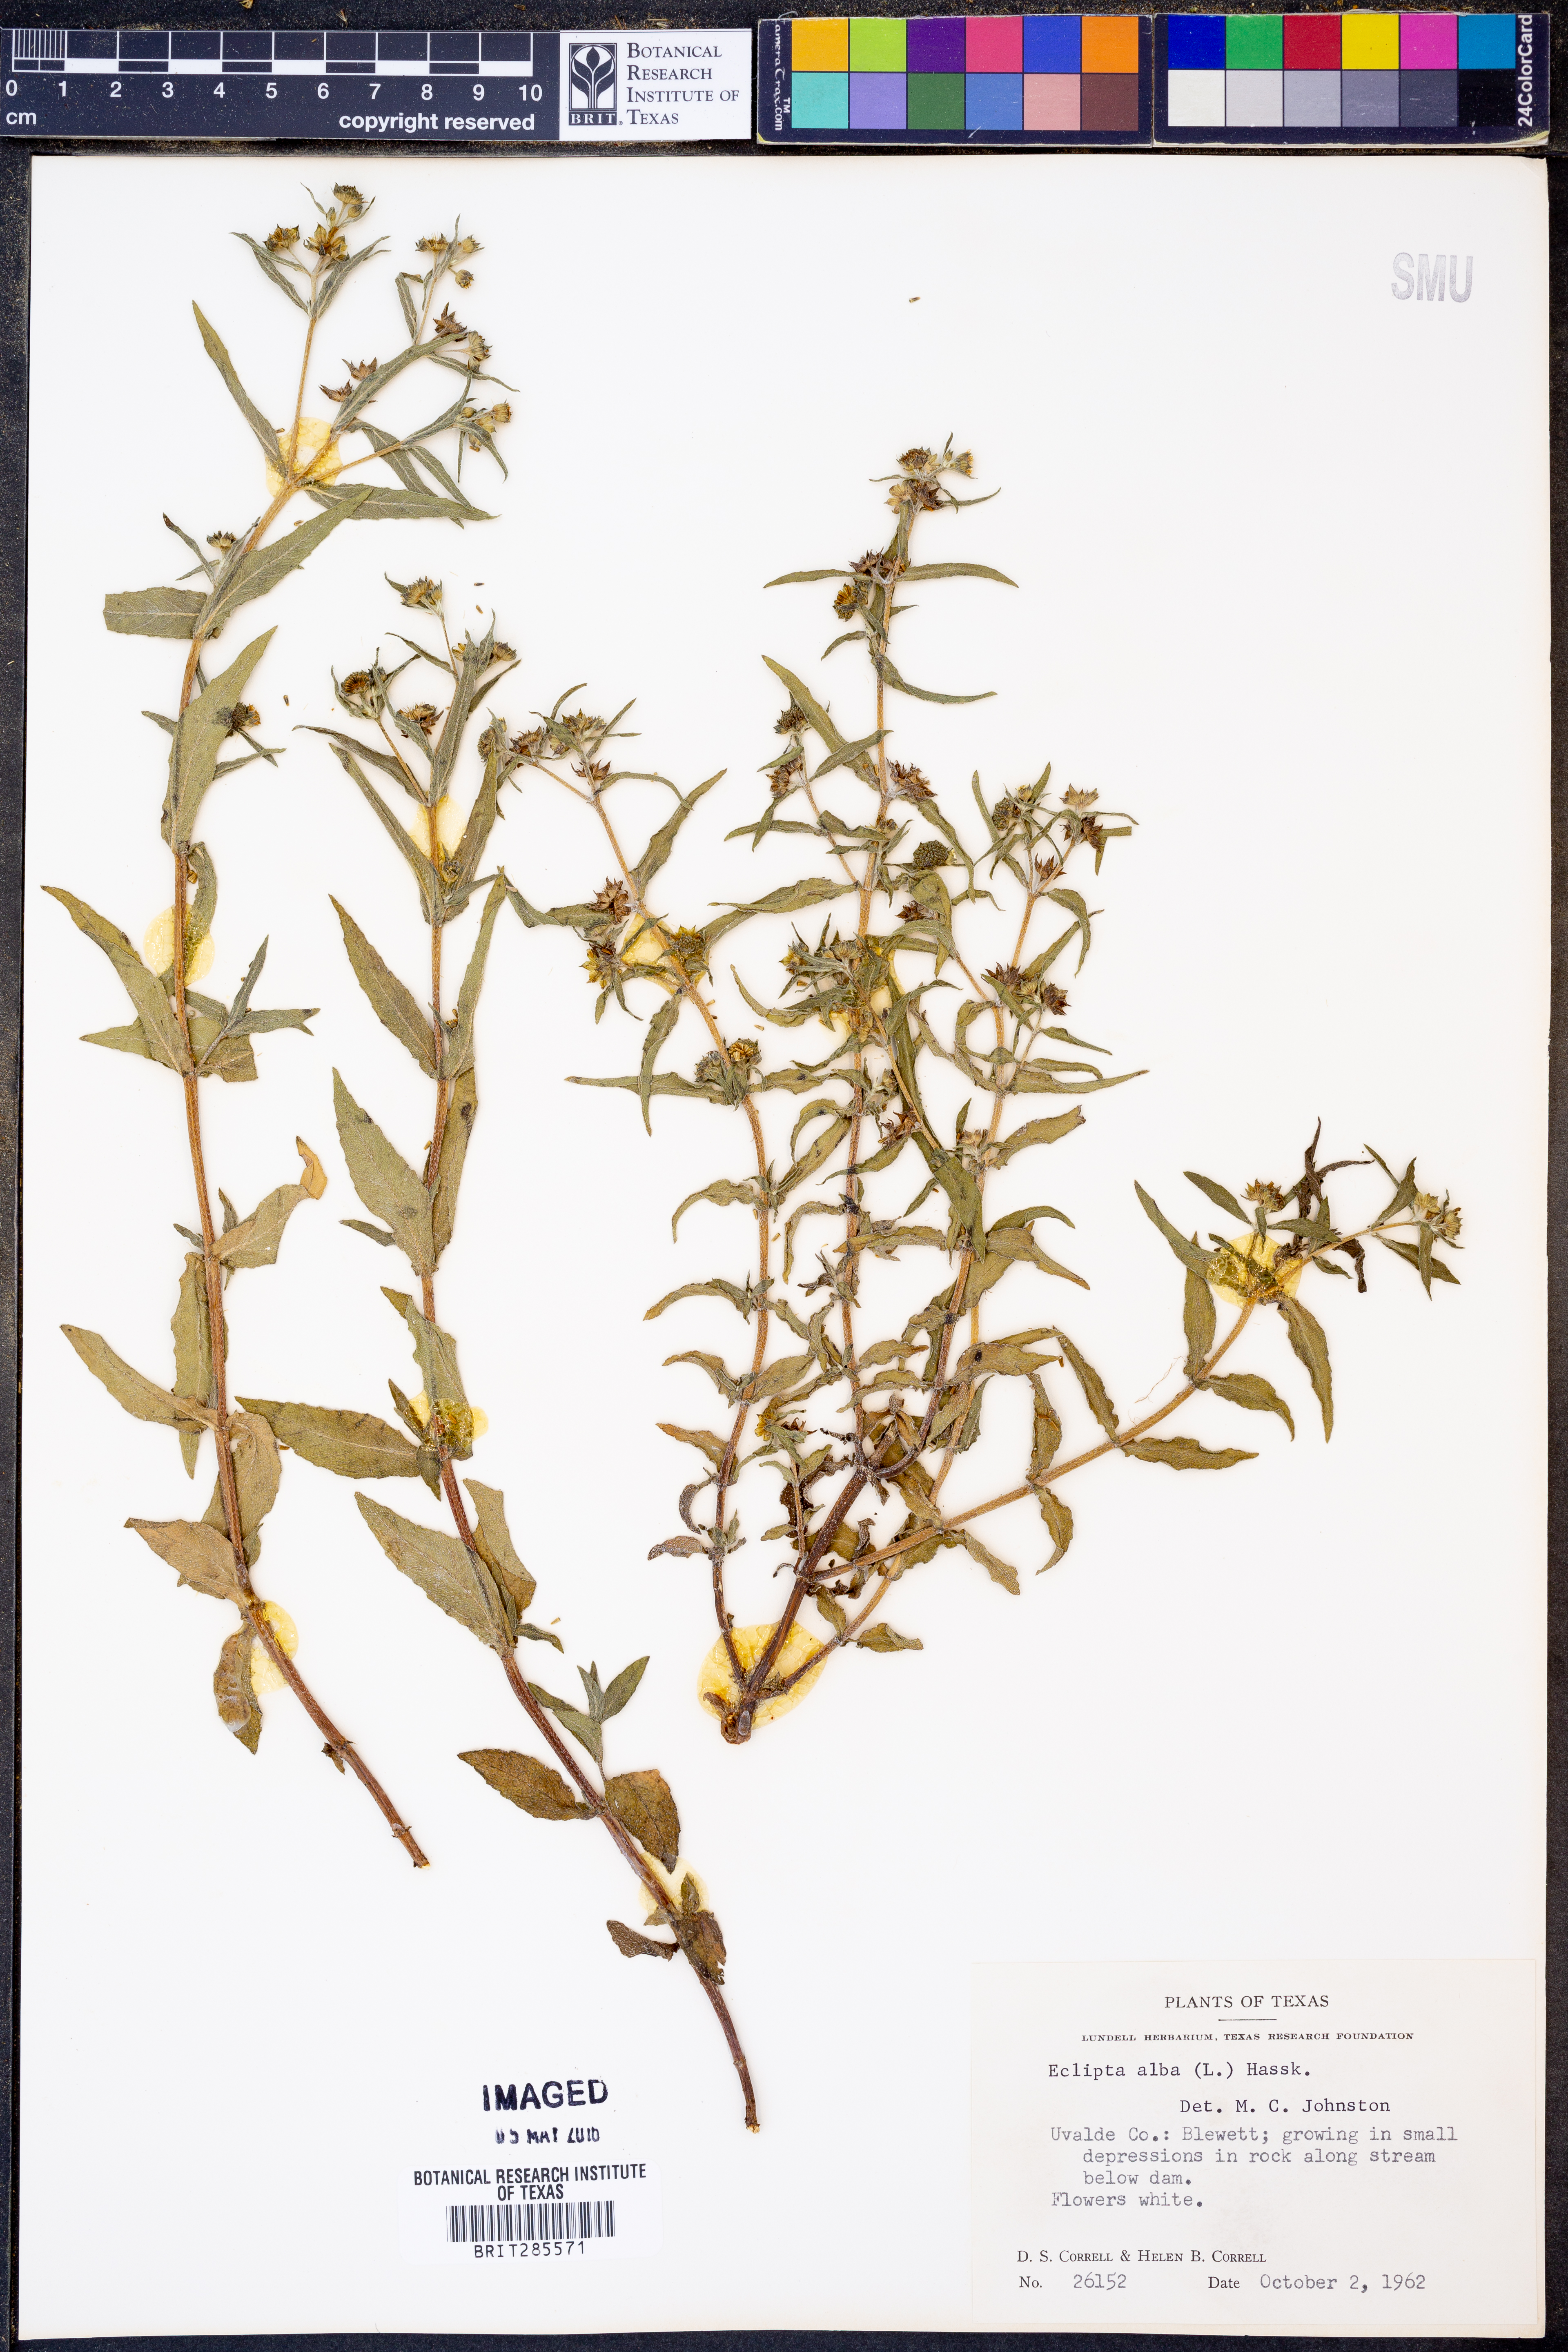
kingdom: Plantae
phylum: Tracheophyta
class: Magnoliopsida
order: Asterales
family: Asteraceae
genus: Eclipta
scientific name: Eclipta alba
